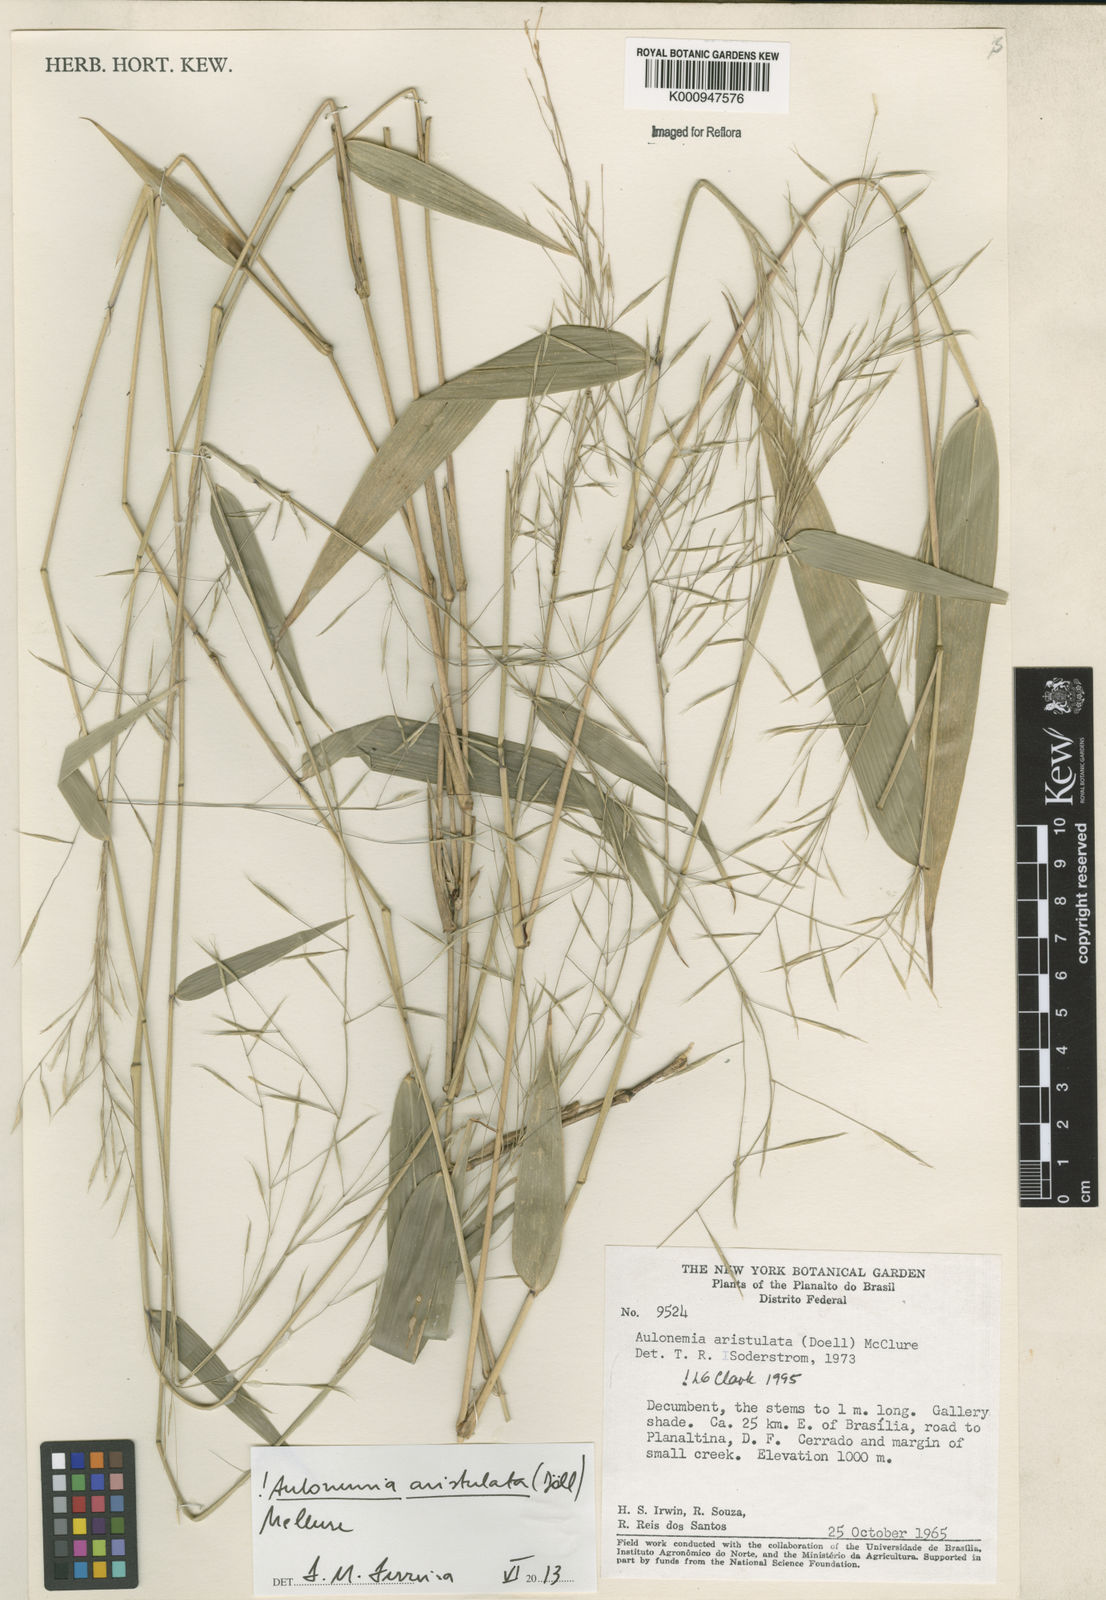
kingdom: Plantae
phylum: Tracheophyta
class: Liliopsida
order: Poales
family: Poaceae
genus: Aulonemia
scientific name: Aulonemia
